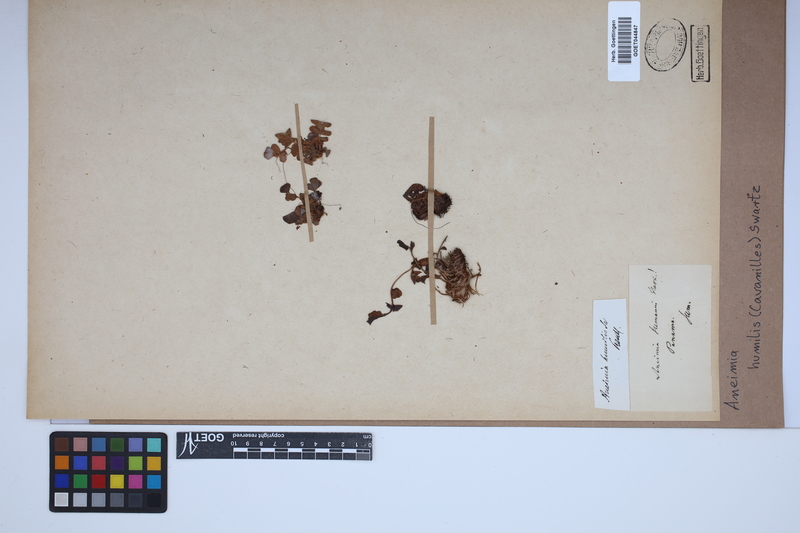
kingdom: Plantae
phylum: Tracheophyta
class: Polypodiopsida
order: Schizaeales
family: Anemiaceae
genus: Anemia
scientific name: Anemia humilis
